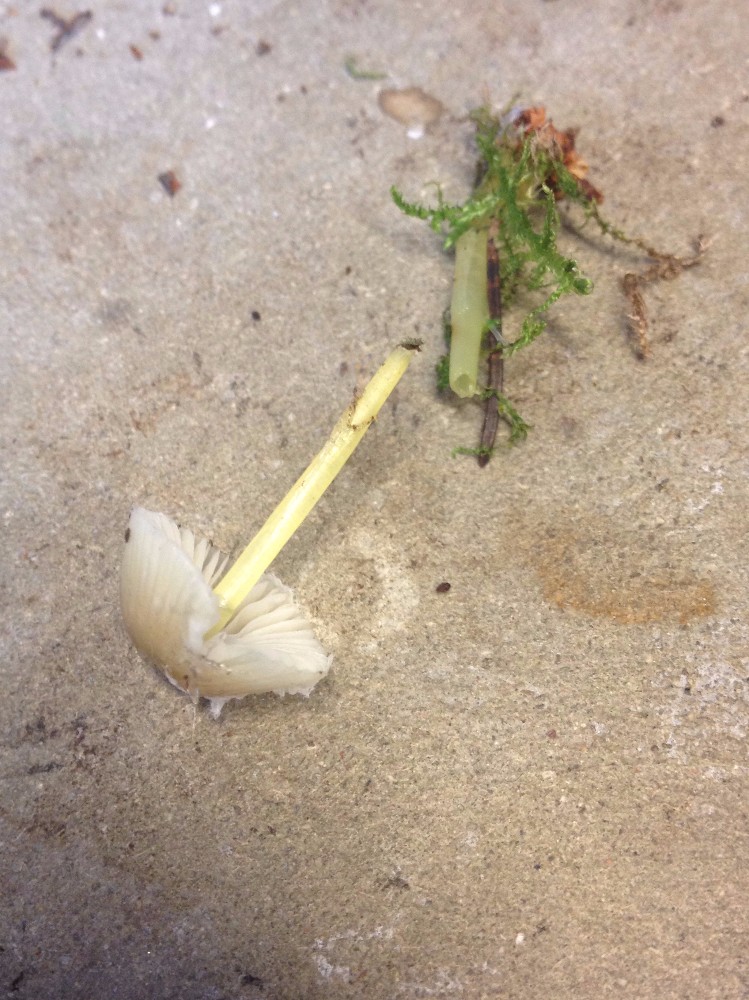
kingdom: Fungi
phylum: Basidiomycota
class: Agaricomycetes
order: Agaricales
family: Mycenaceae
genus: Mycena
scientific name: Mycena epipterygia
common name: gulstokket huesvamp
